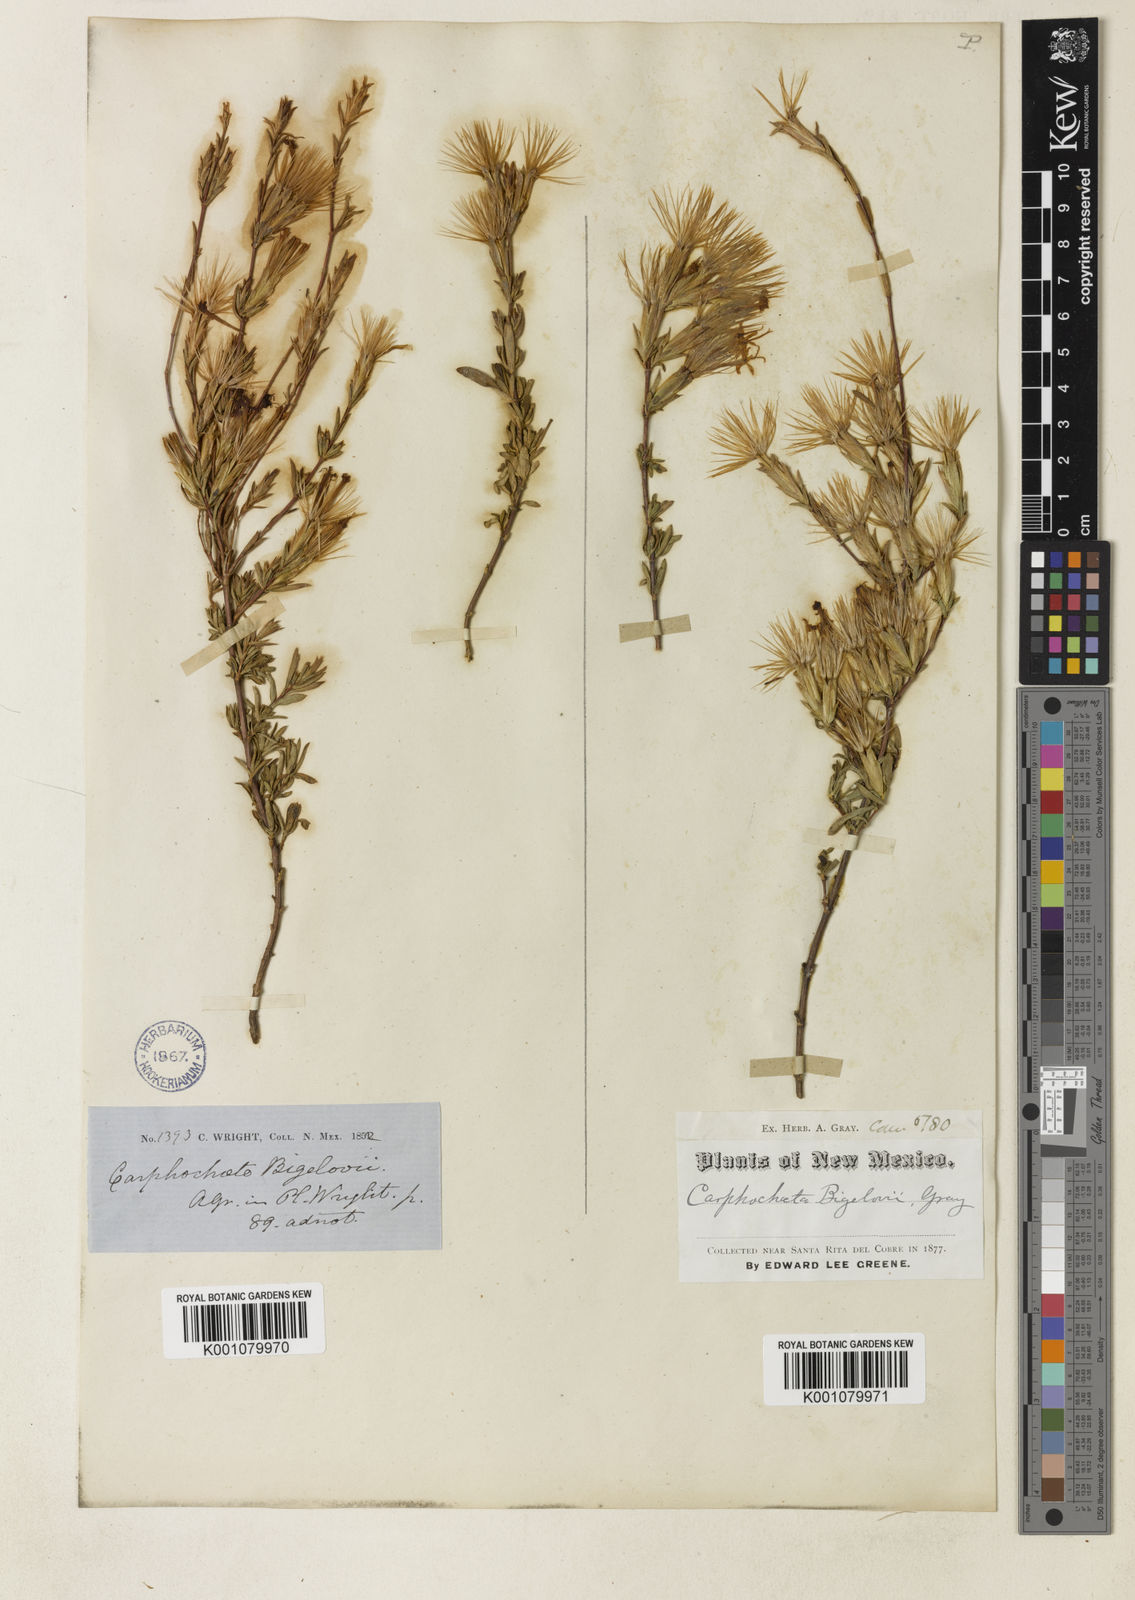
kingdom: Plantae
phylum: Tracheophyta
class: Magnoliopsida
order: Asterales
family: Asteraceae
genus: Carphochaete
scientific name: Carphochaete bigelovii
